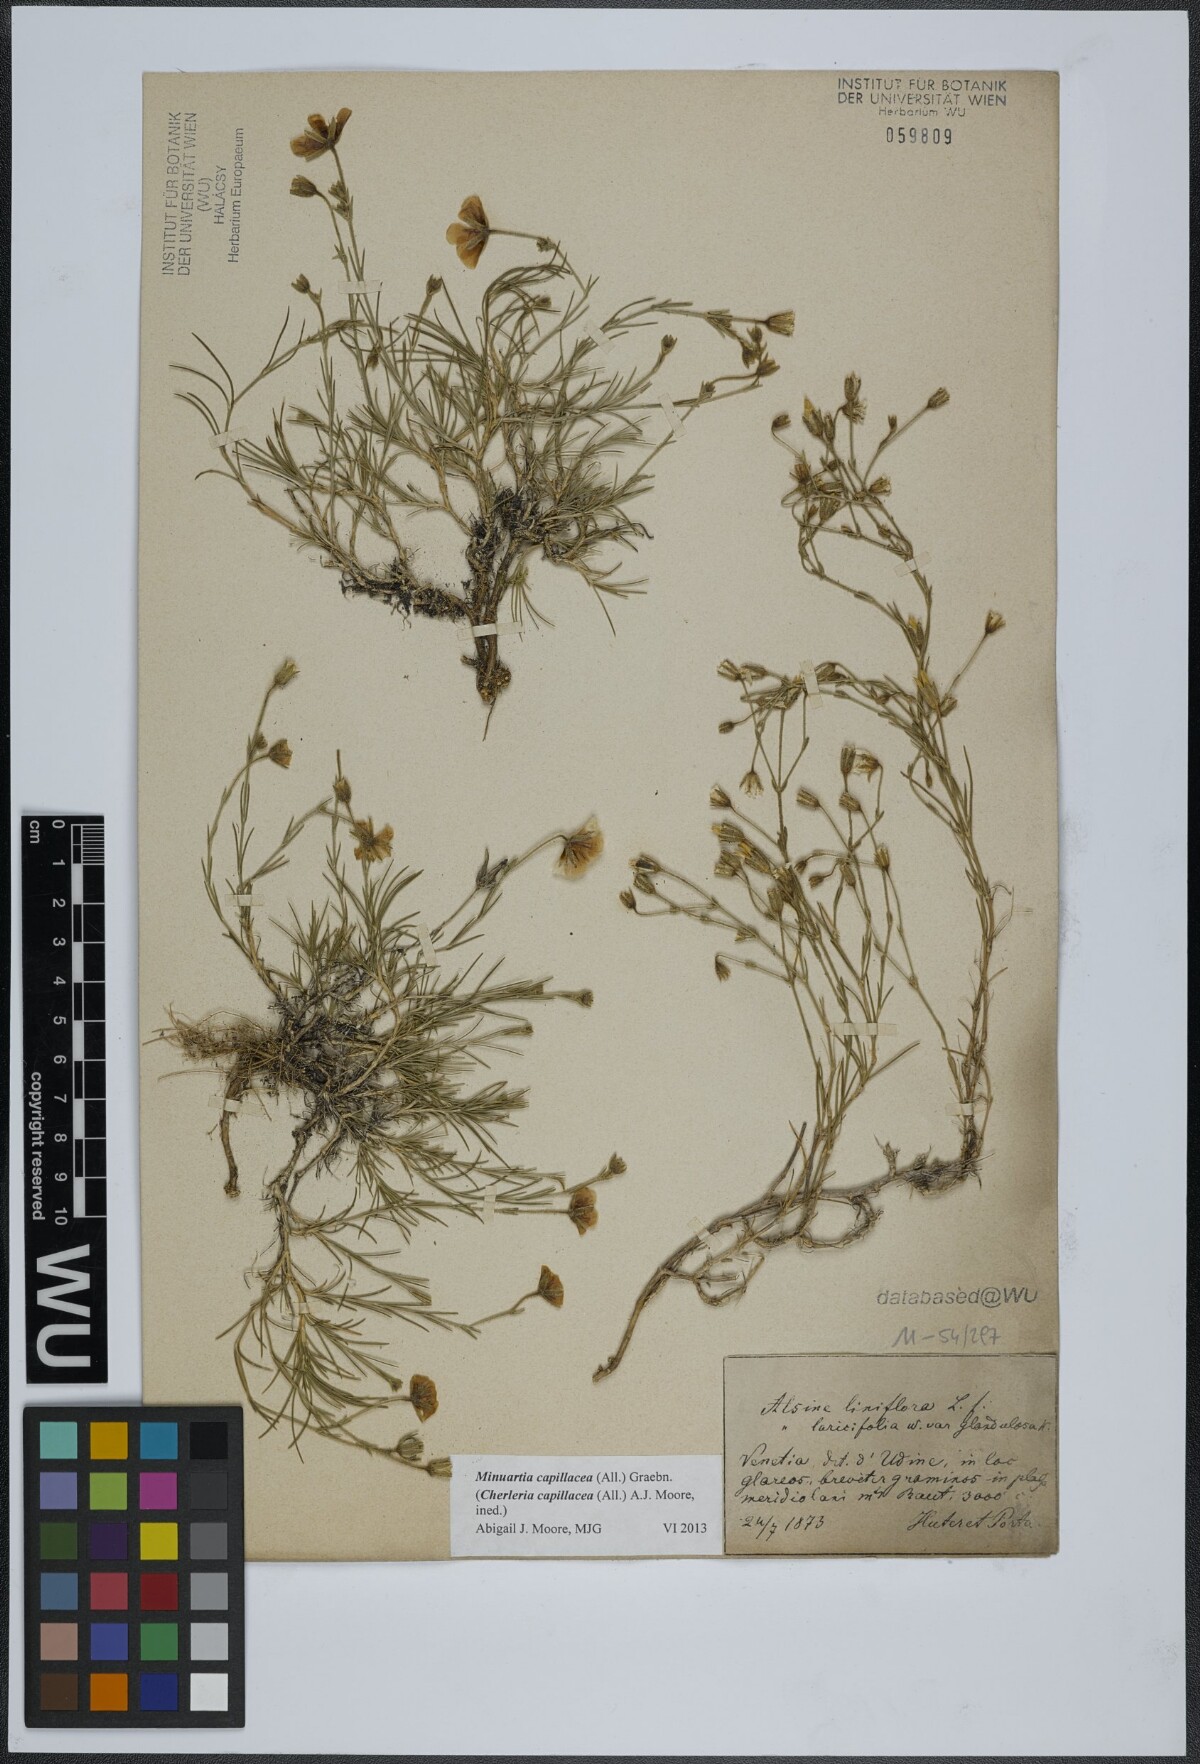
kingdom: Plantae
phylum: Tracheophyta
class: Magnoliopsida
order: Caryophyllales
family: Caryophyllaceae
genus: Cherleria
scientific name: Cherleria capillacea
